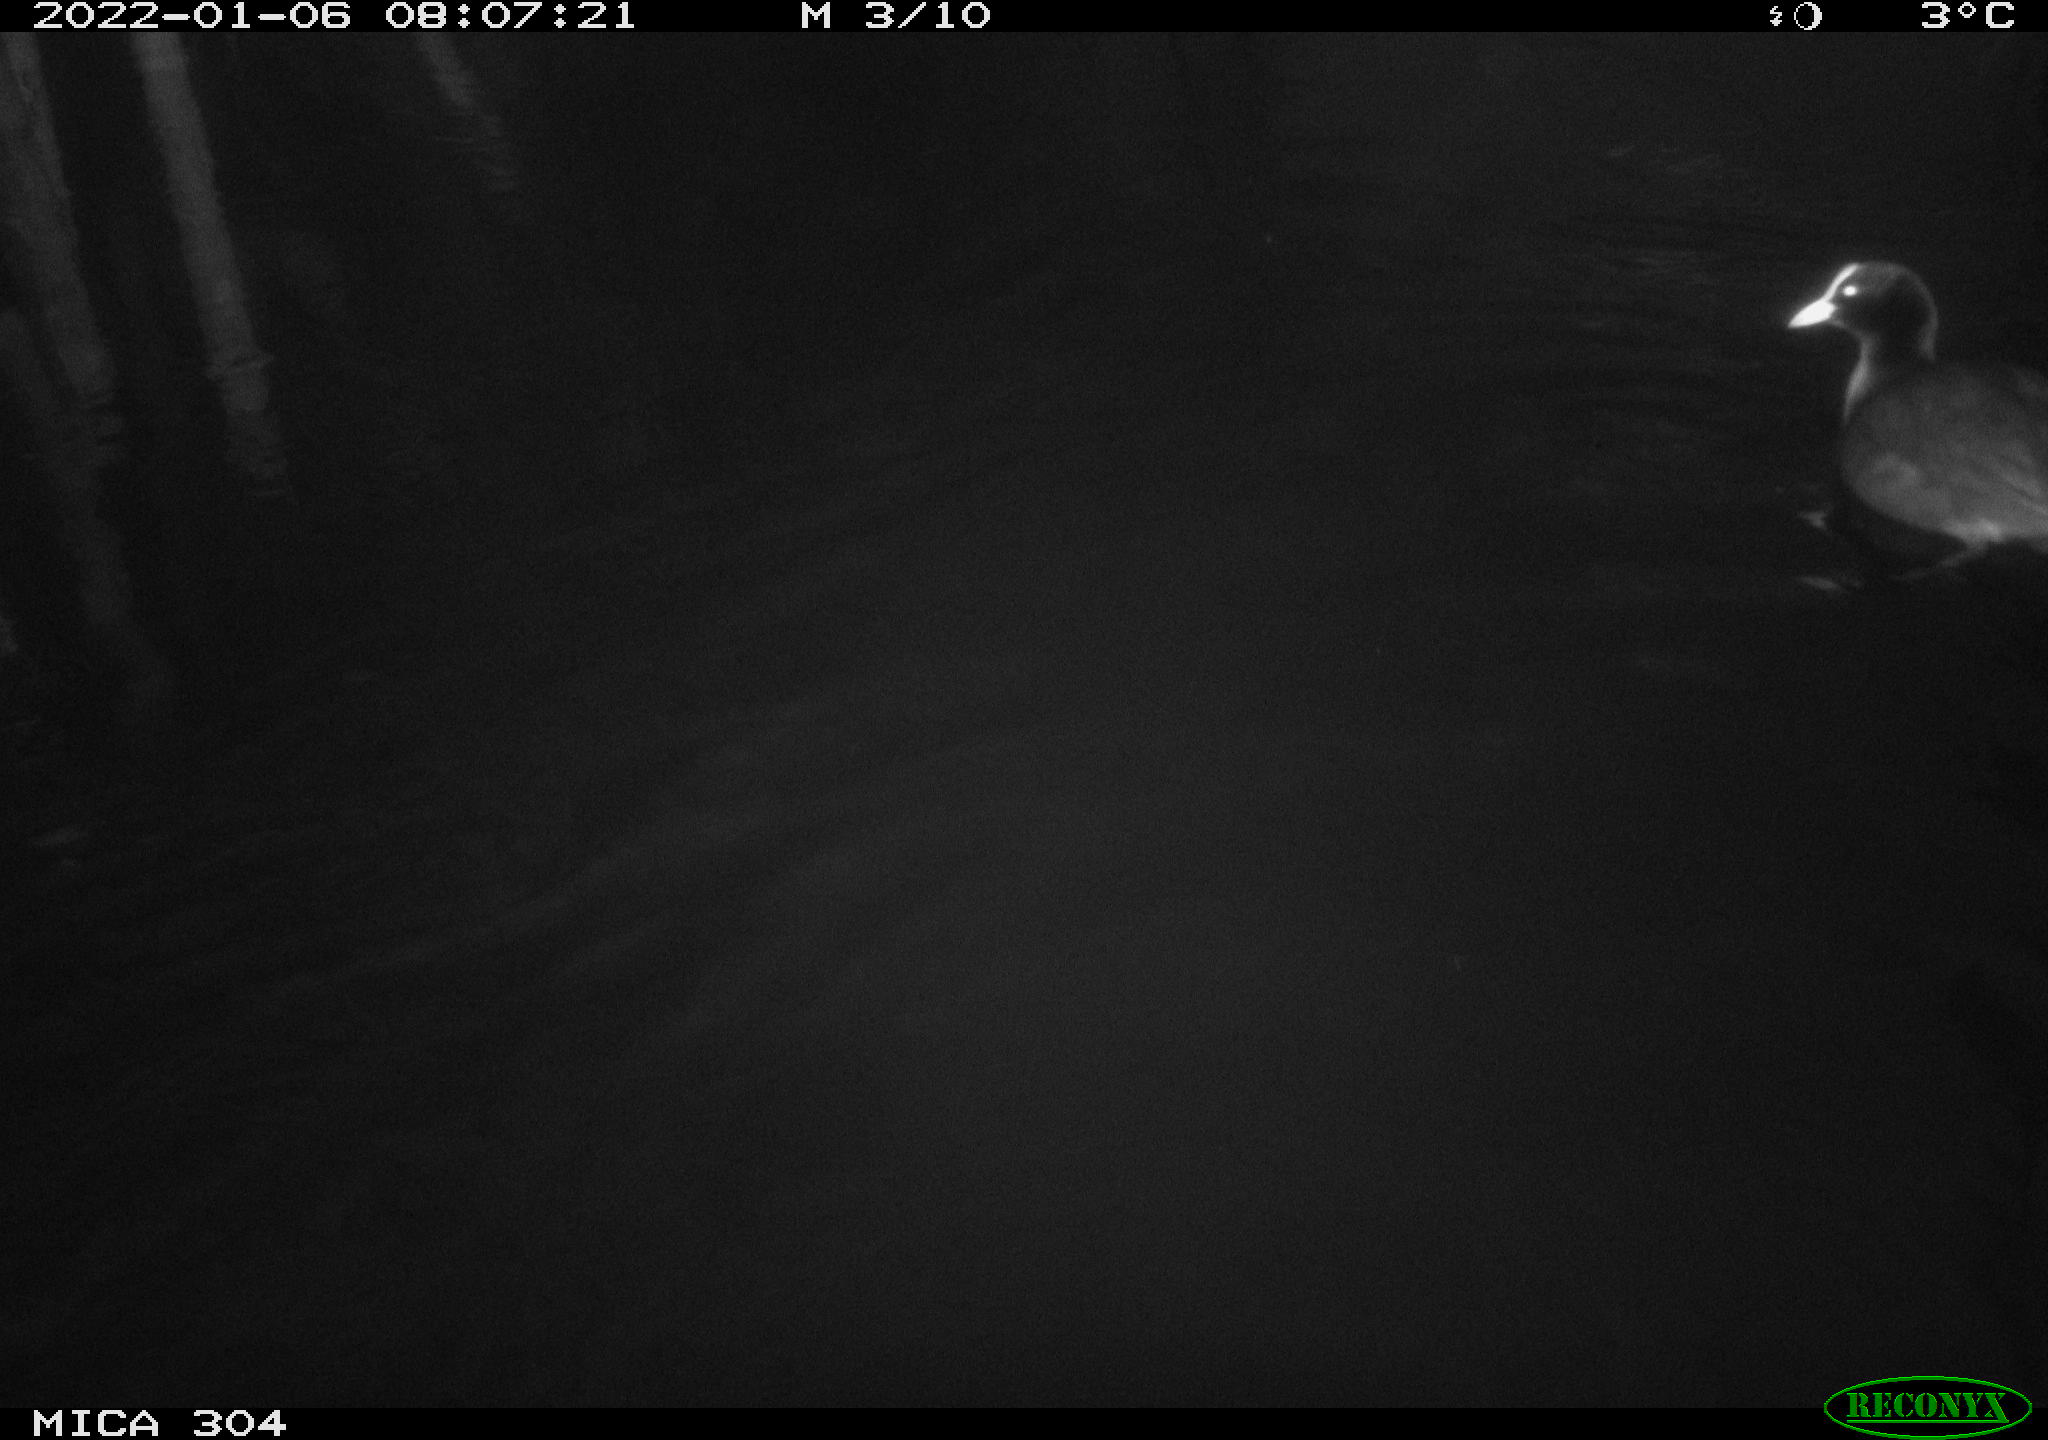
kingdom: Animalia
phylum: Chordata
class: Aves
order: Anseriformes
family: Anatidae
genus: Anas
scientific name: Anas
